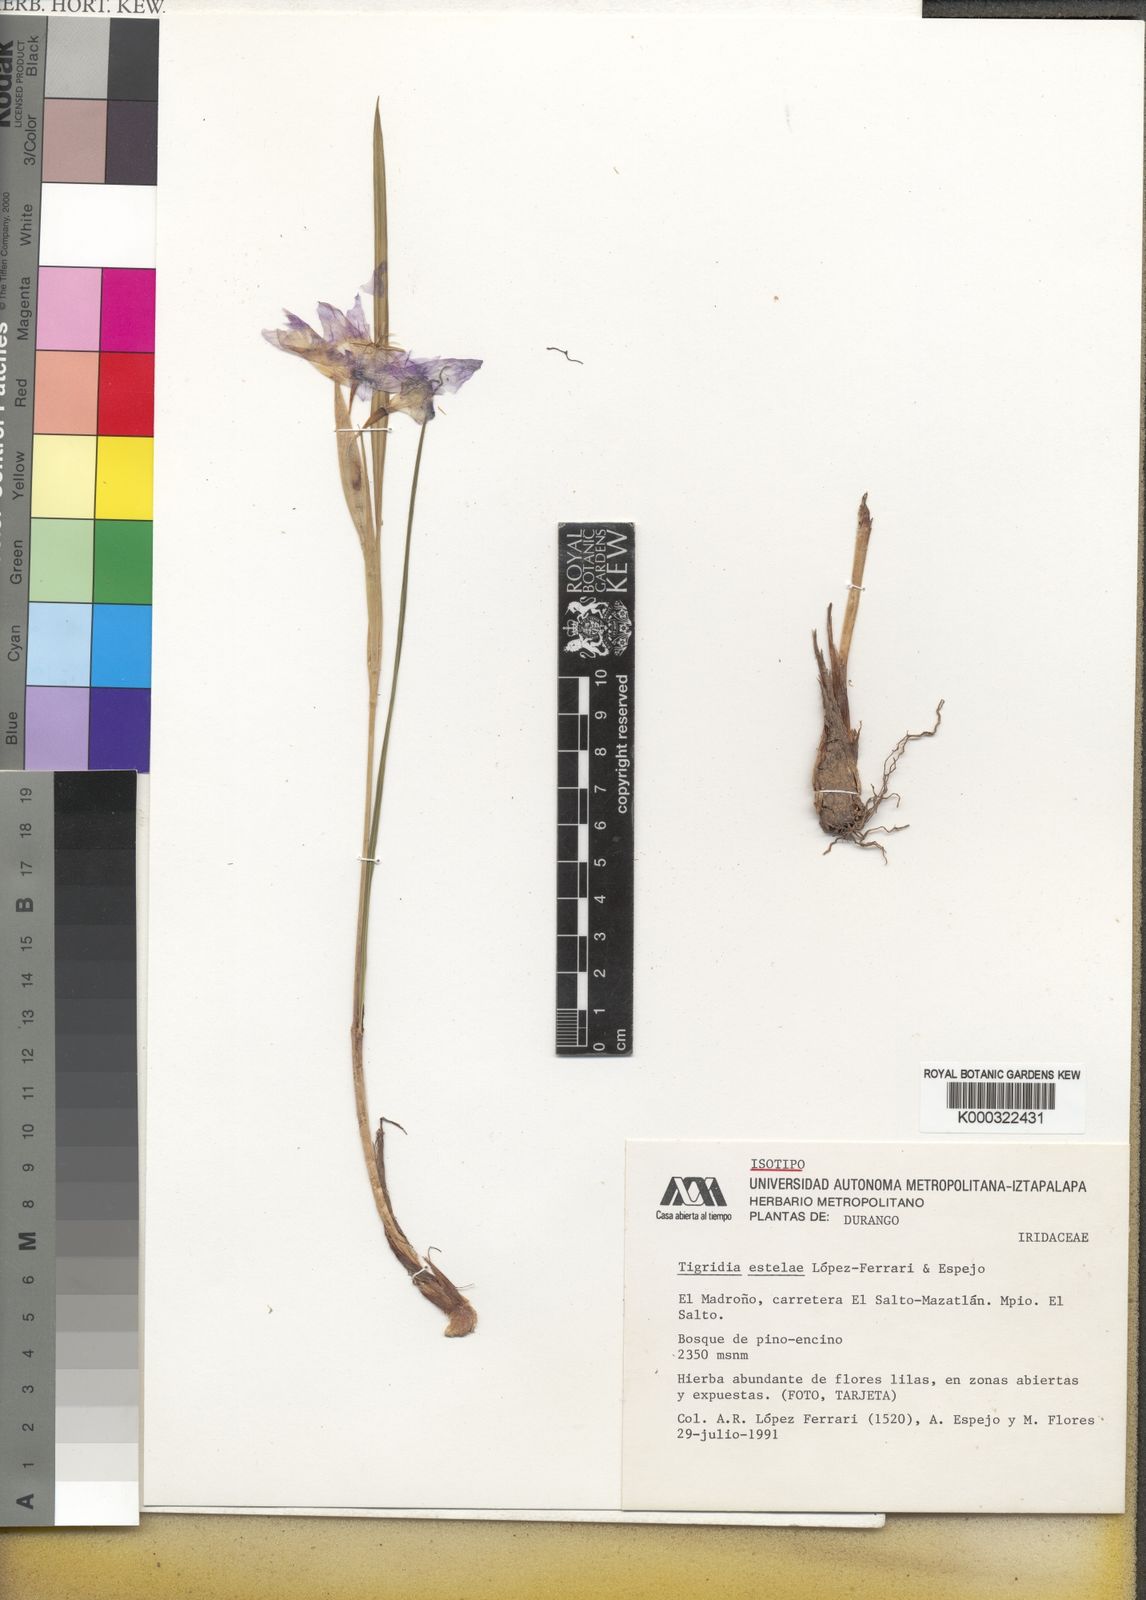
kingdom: Plantae
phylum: Tracheophyta
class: Liliopsida
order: Asparagales
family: Iridaceae
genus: Tigridia
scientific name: Tigridia
